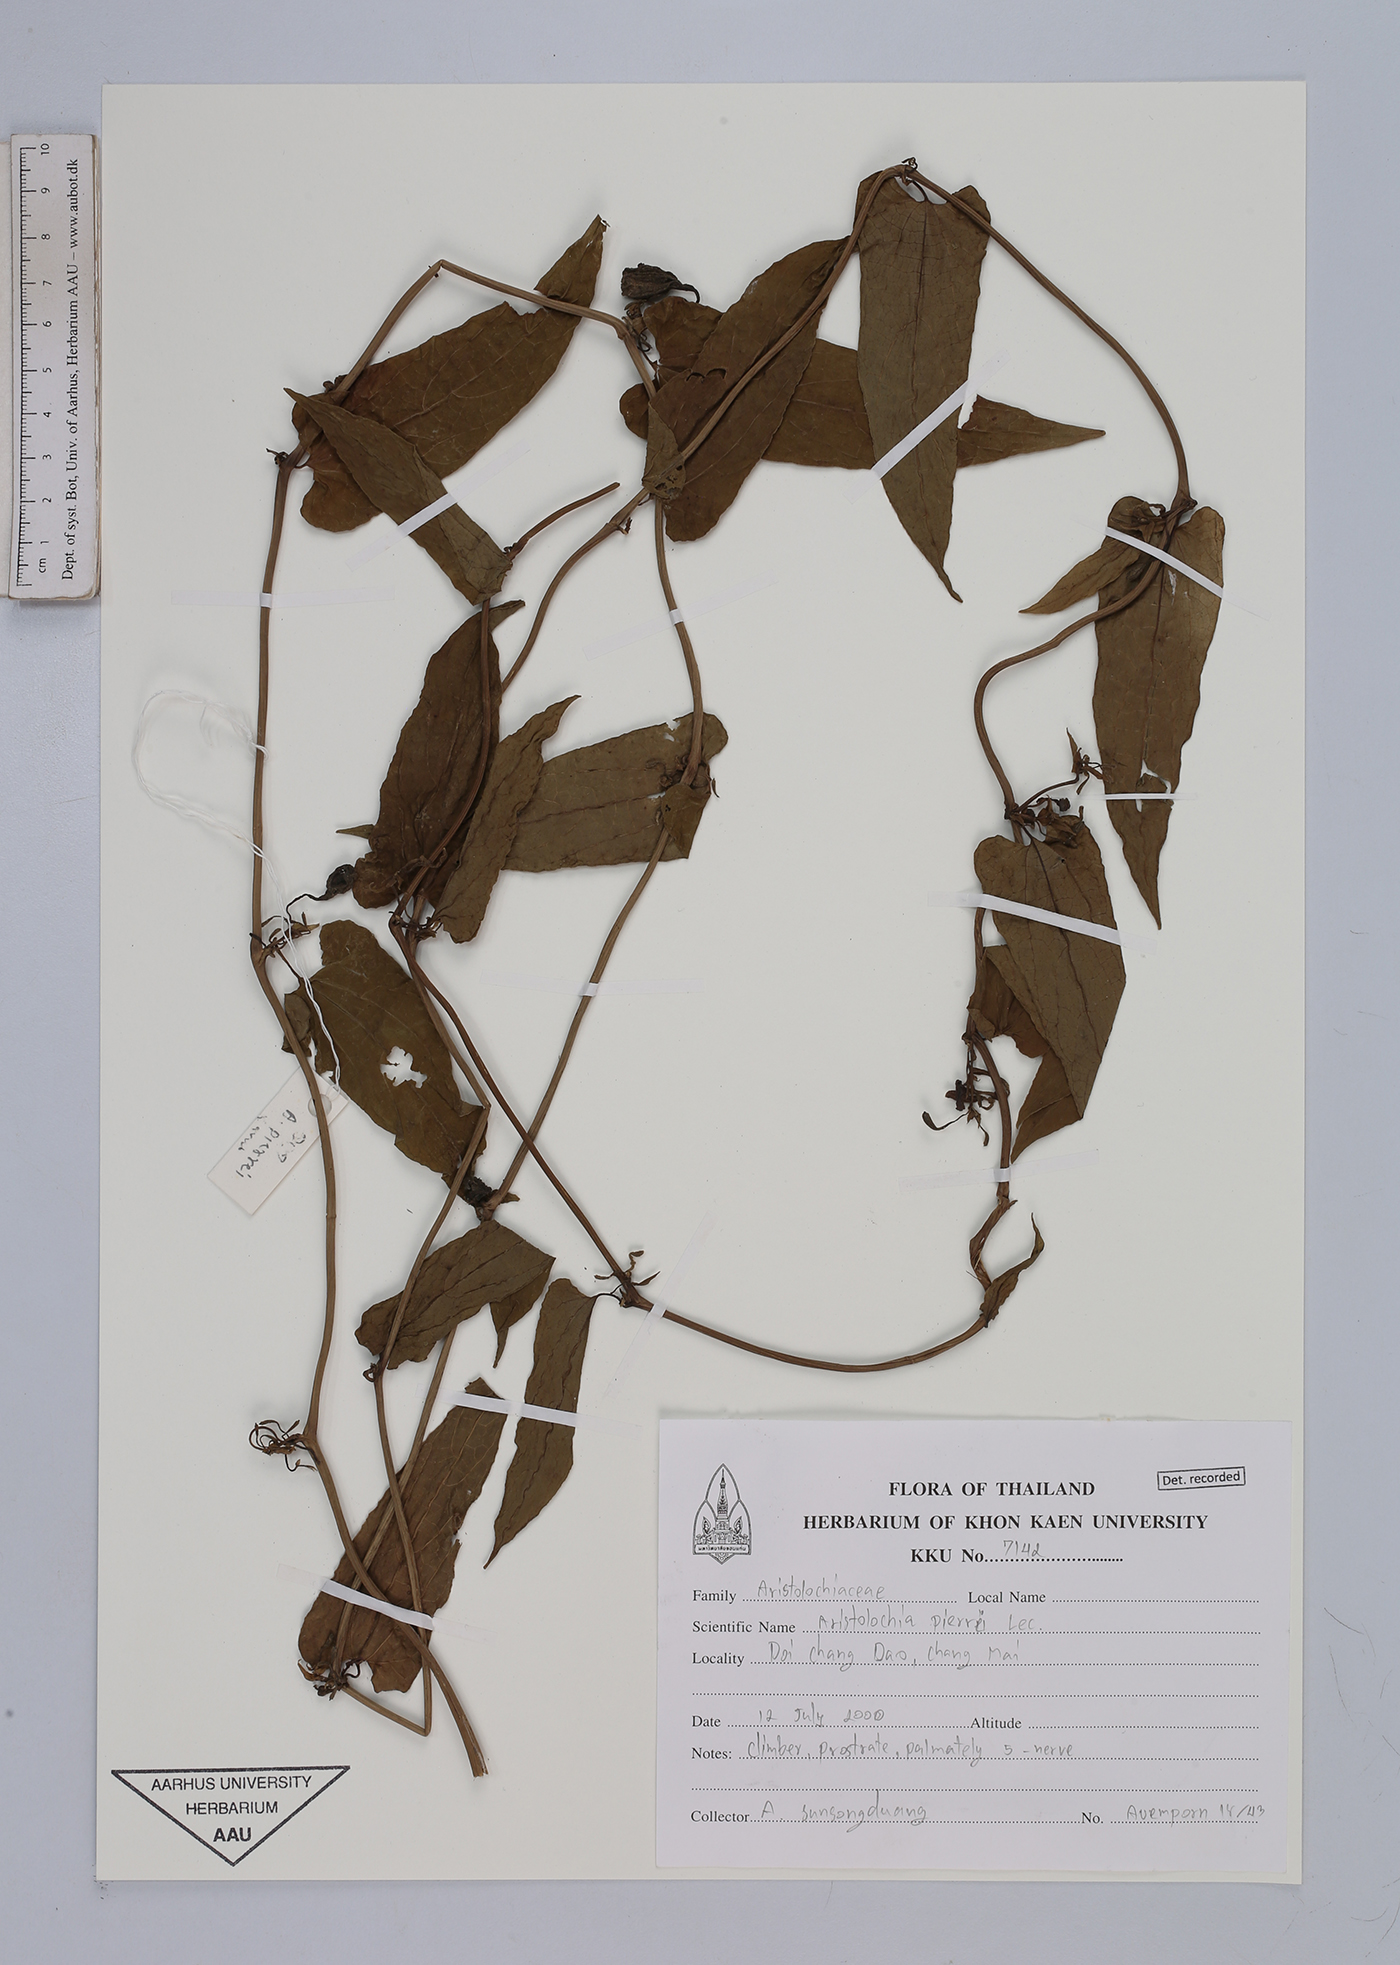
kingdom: Plantae
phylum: Tracheophyta
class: Magnoliopsida
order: Piperales
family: Aristolochiaceae
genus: Aristolochia
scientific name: Aristolochia pierrei
